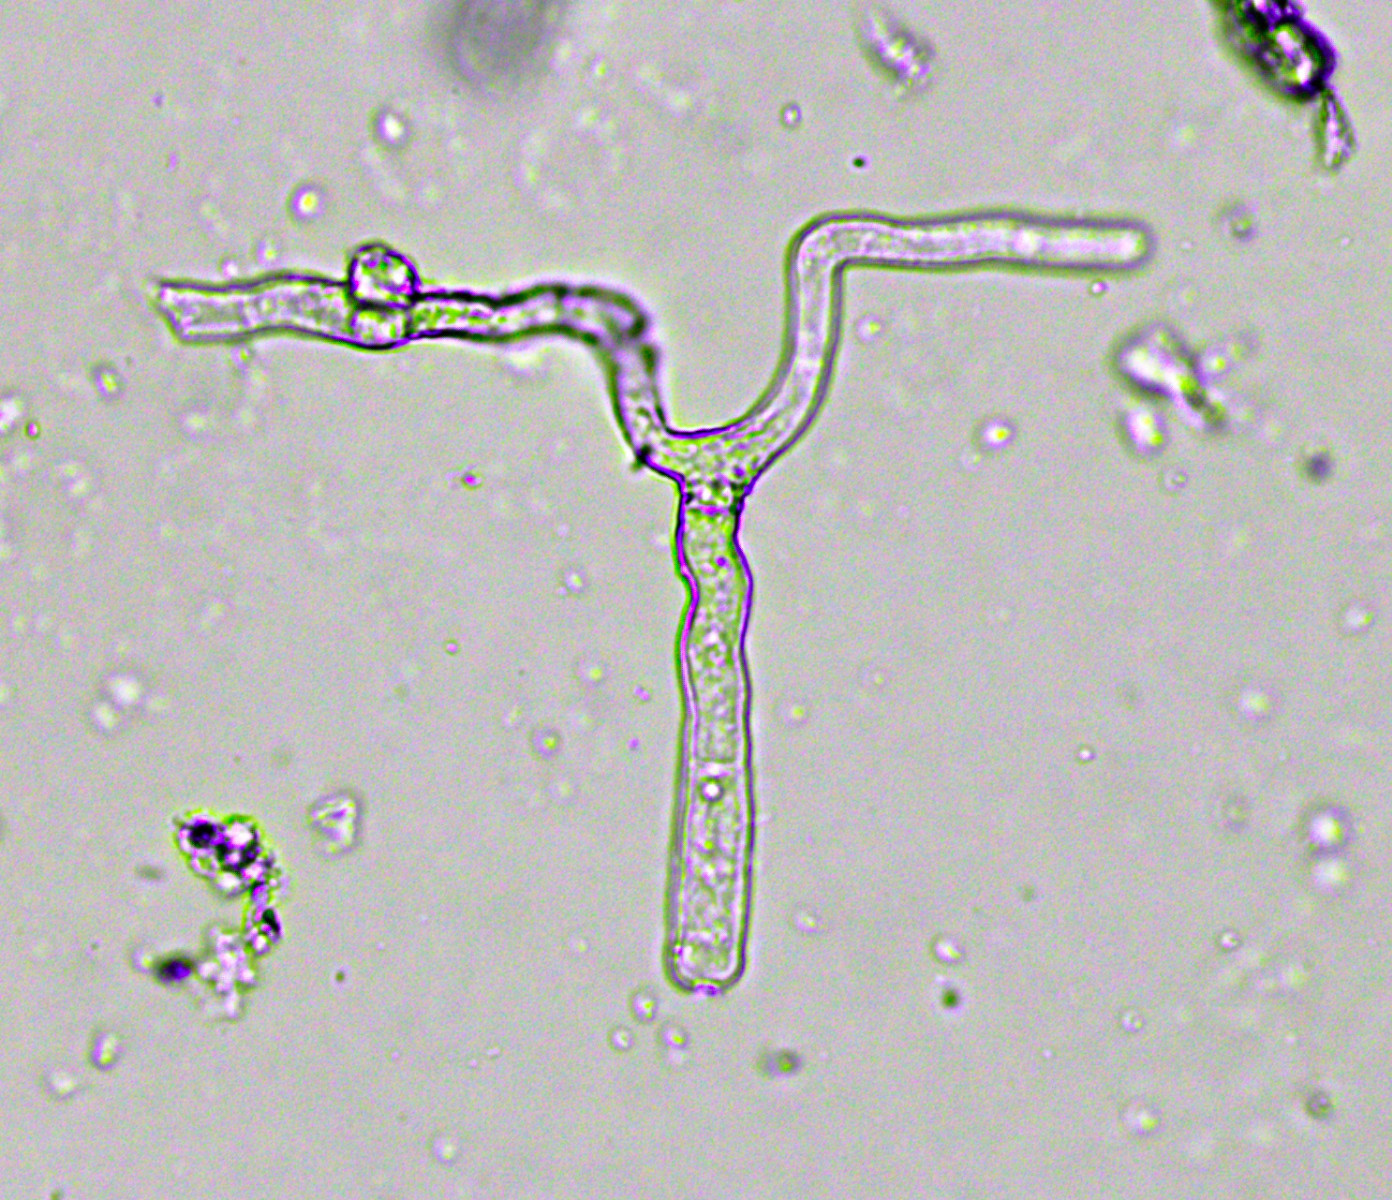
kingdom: Fungi
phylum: Ascomycota
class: Leotiomycetes
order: Helotiales
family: Erysiphaceae
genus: Erysiphe
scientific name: Erysiphe akebiae
